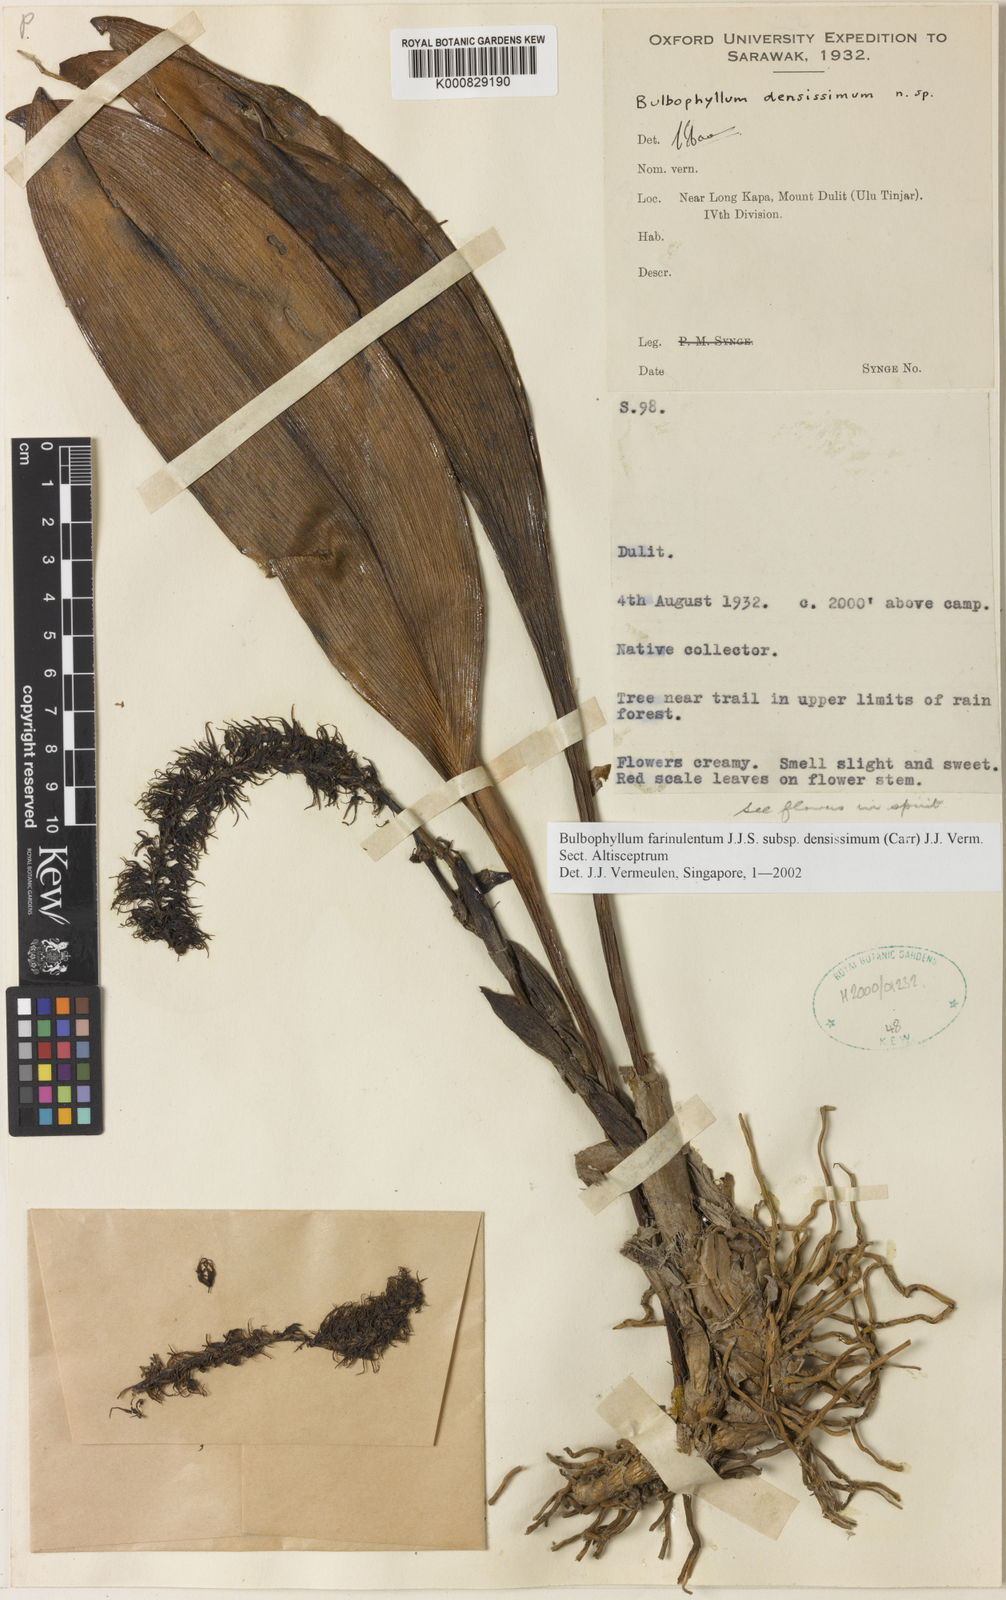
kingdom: Plantae
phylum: Tracheophyta
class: Liliopsida
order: Asparagales
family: Orchidaceae
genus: Bulbophyllum
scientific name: Bulbophyllum farinulentum
